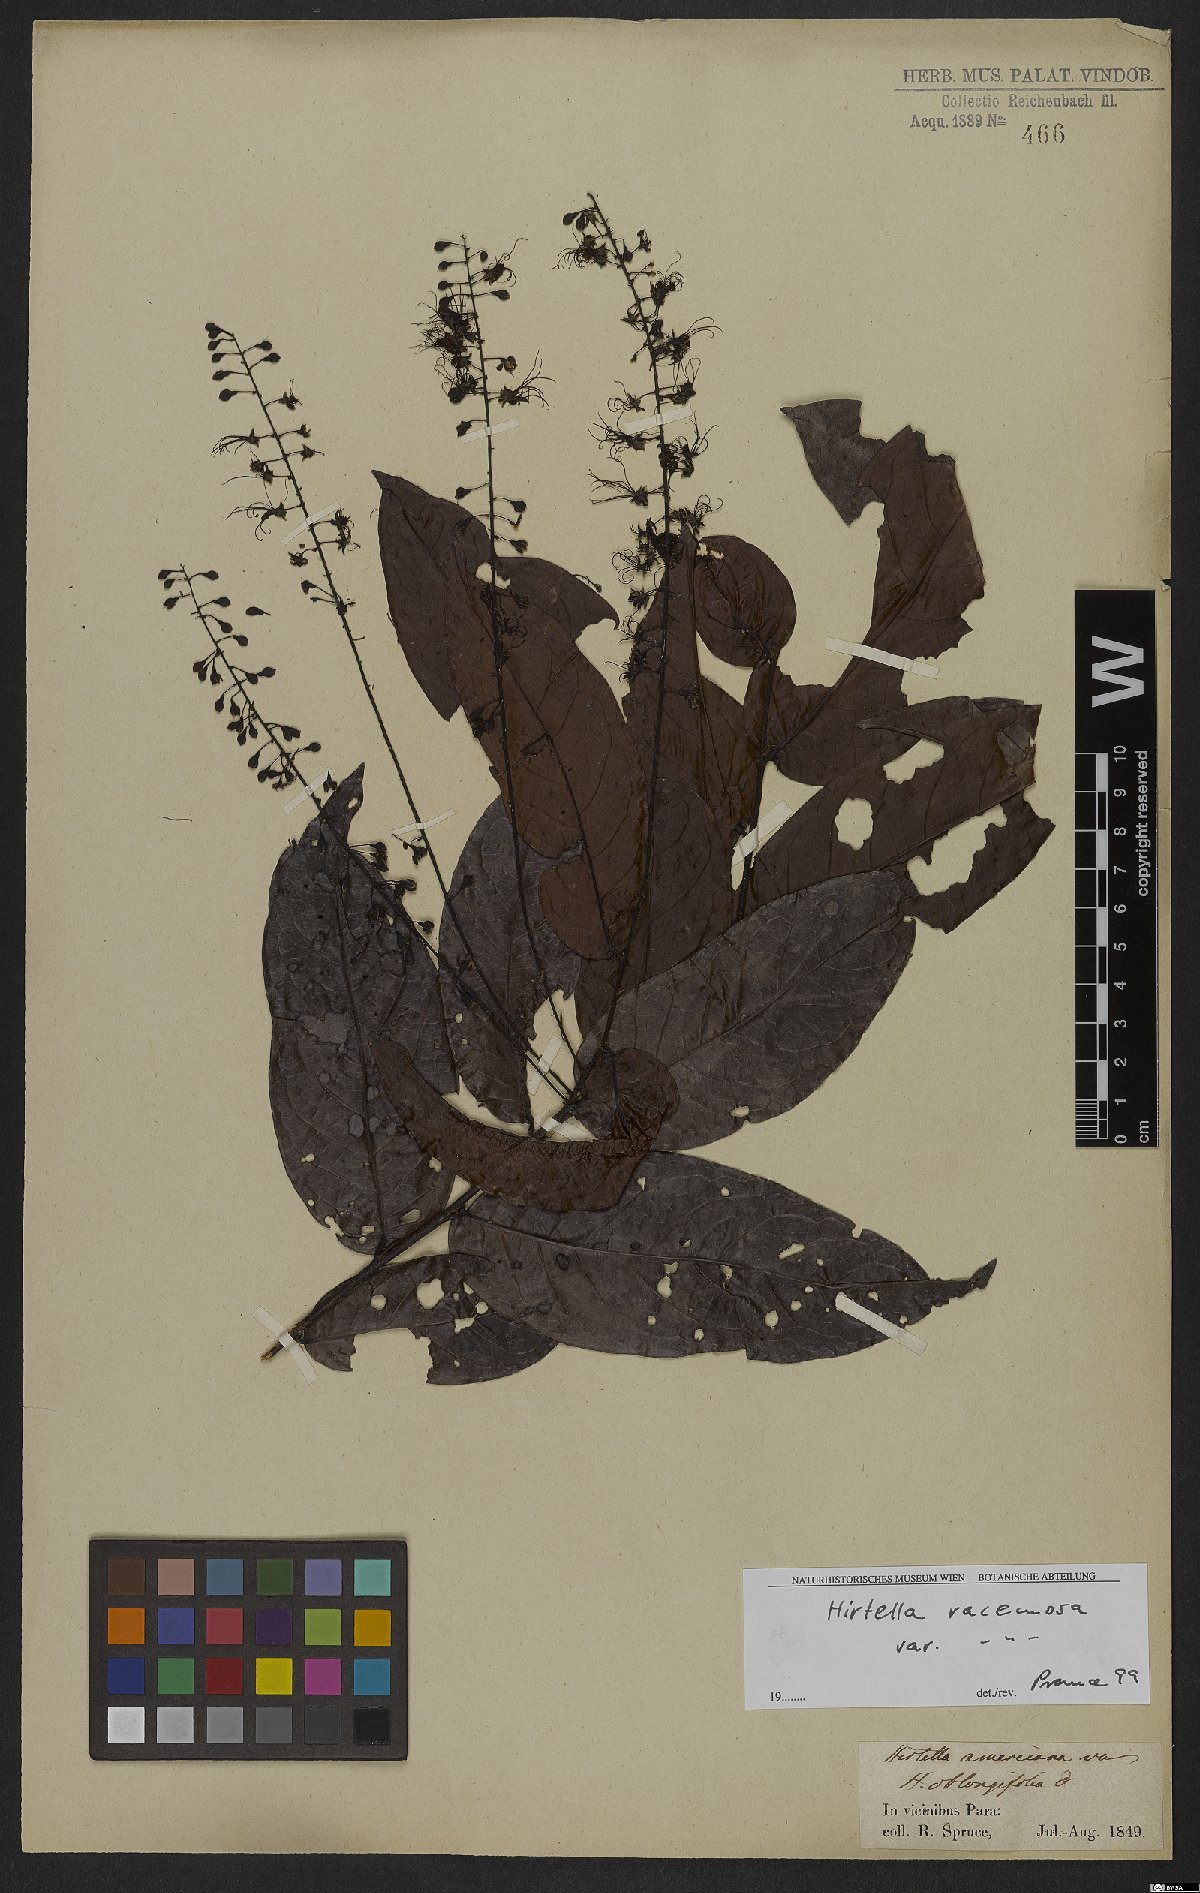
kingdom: Plantae
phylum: Tracheophyta
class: Magnoliopsida
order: Malpighiales
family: Chrysobalanaceae
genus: Hirtella
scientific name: Hirtella racemosa
